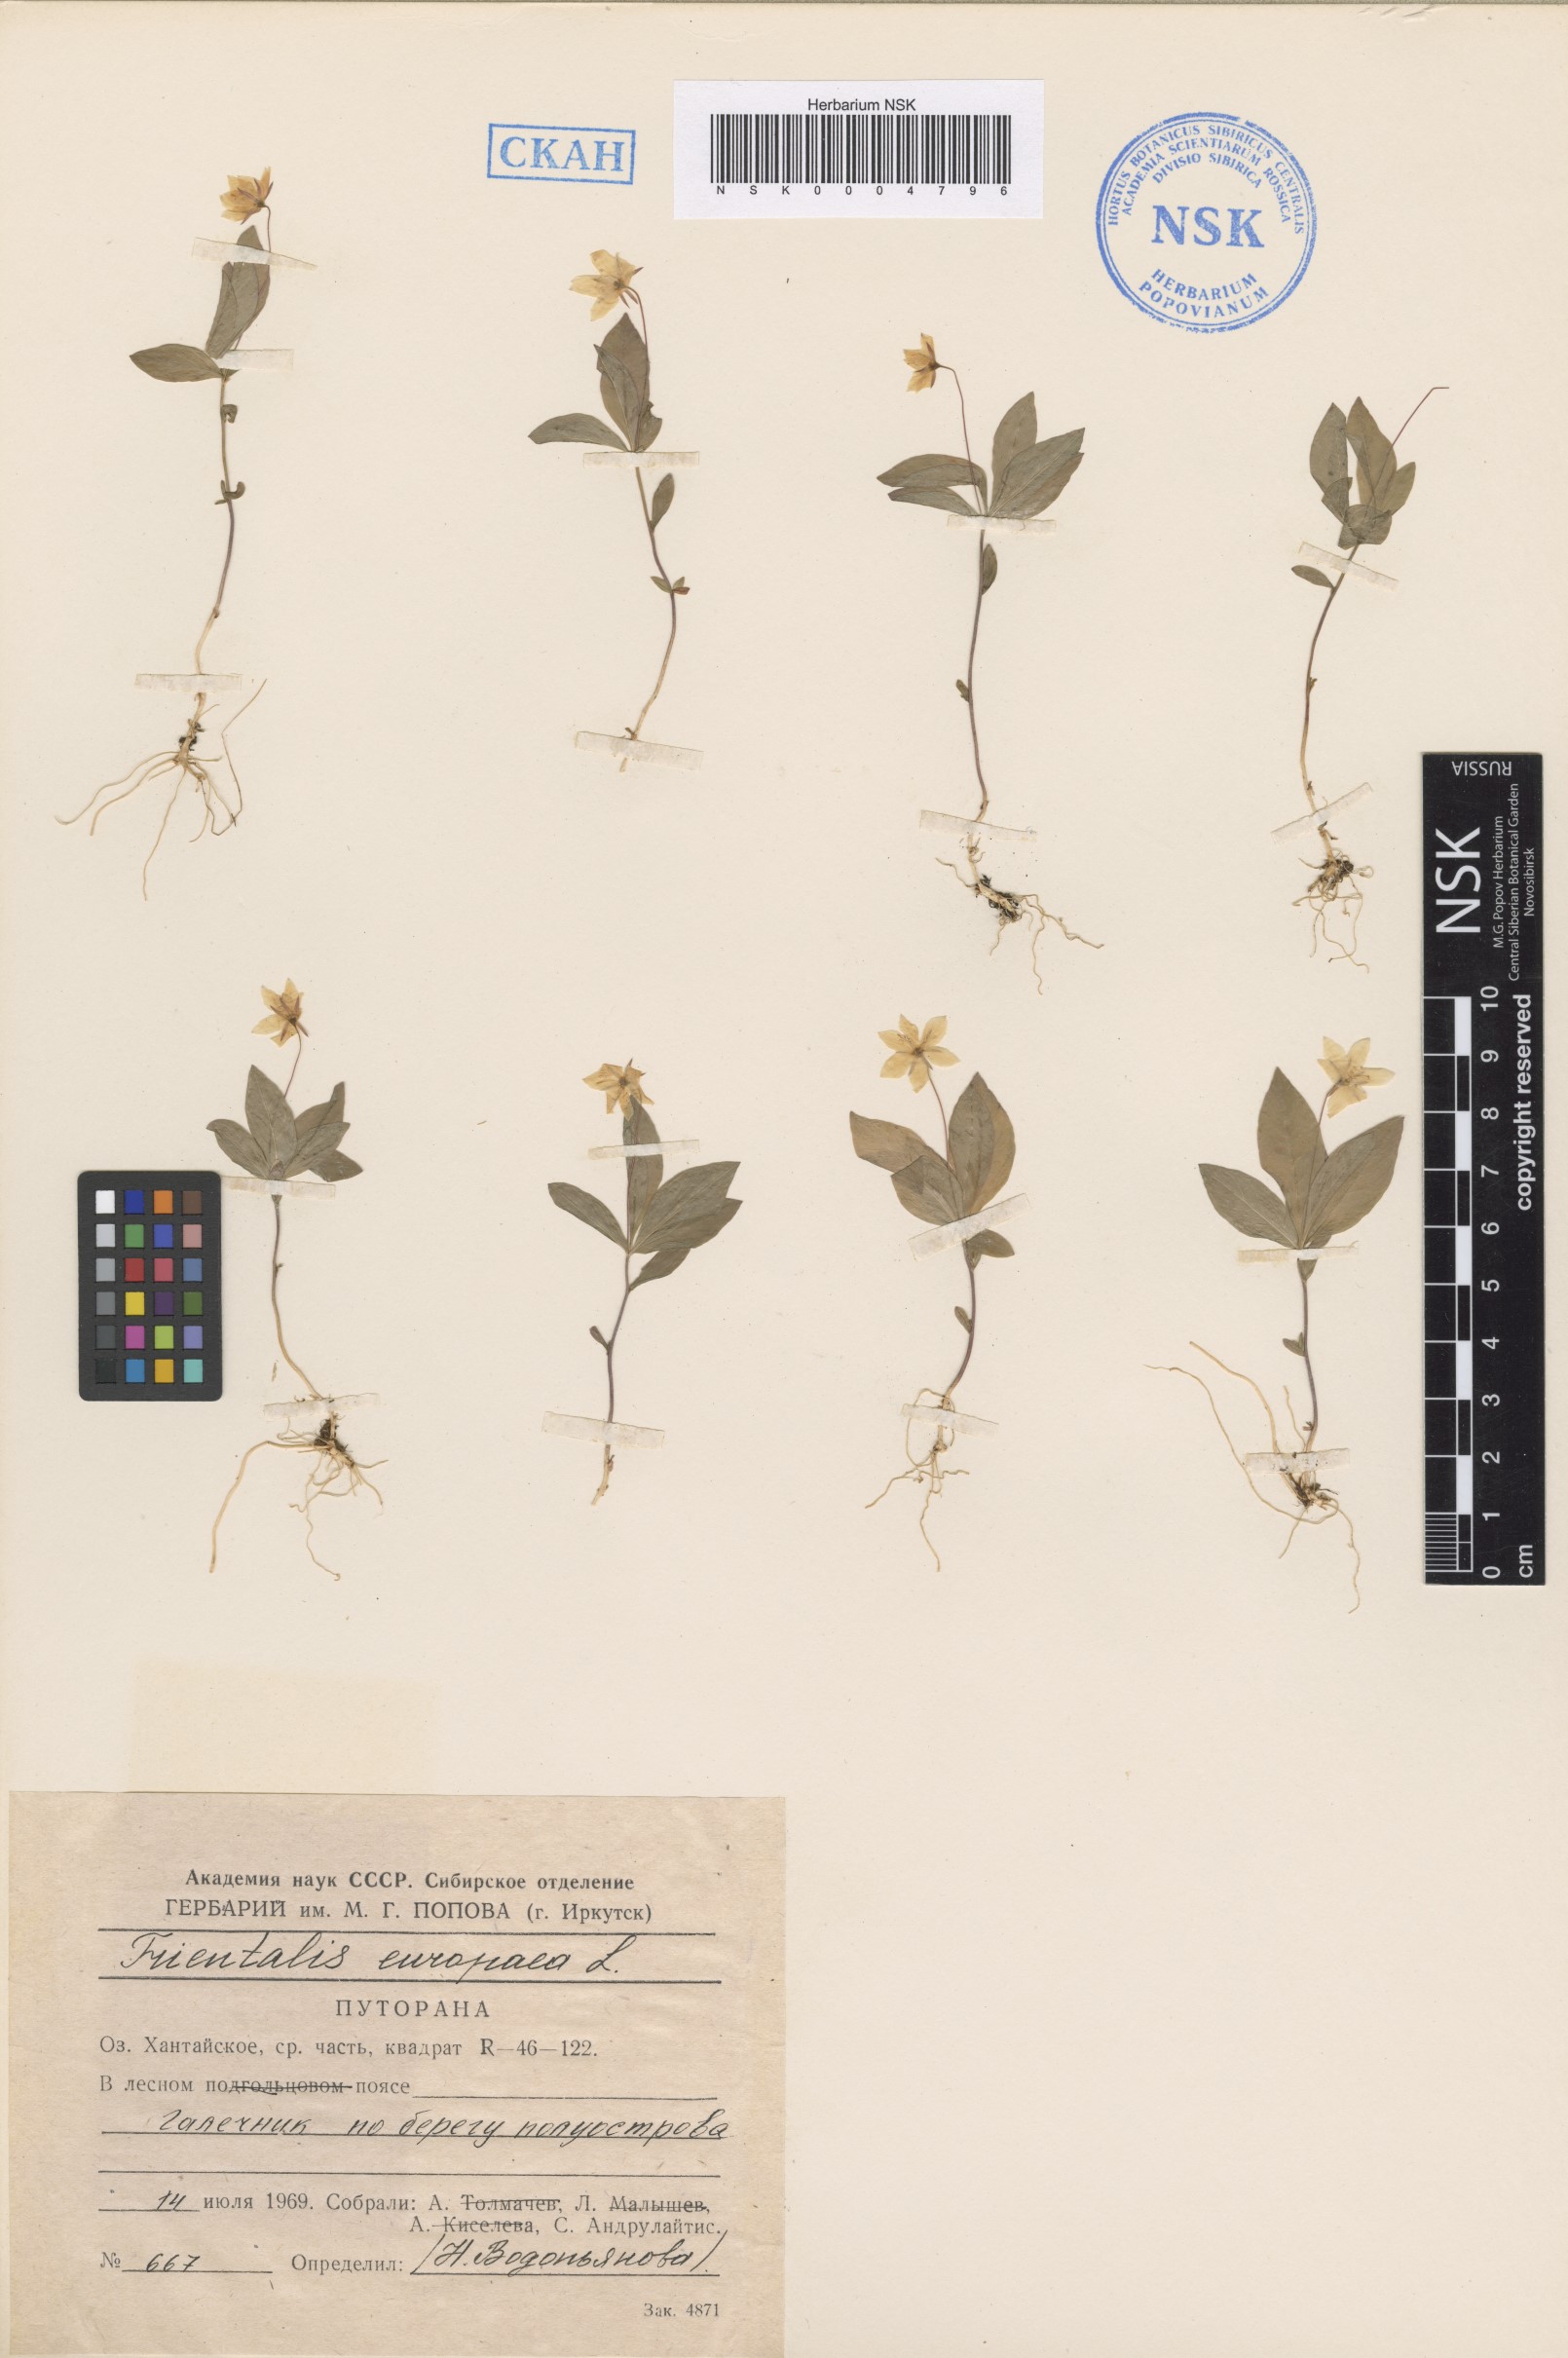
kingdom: Plantae
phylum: Tracheophyta
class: Magnoliopsida
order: Ericales
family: Primulaceae
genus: Lysimachia
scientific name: Lysimachia europaea
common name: Arctic starflower
